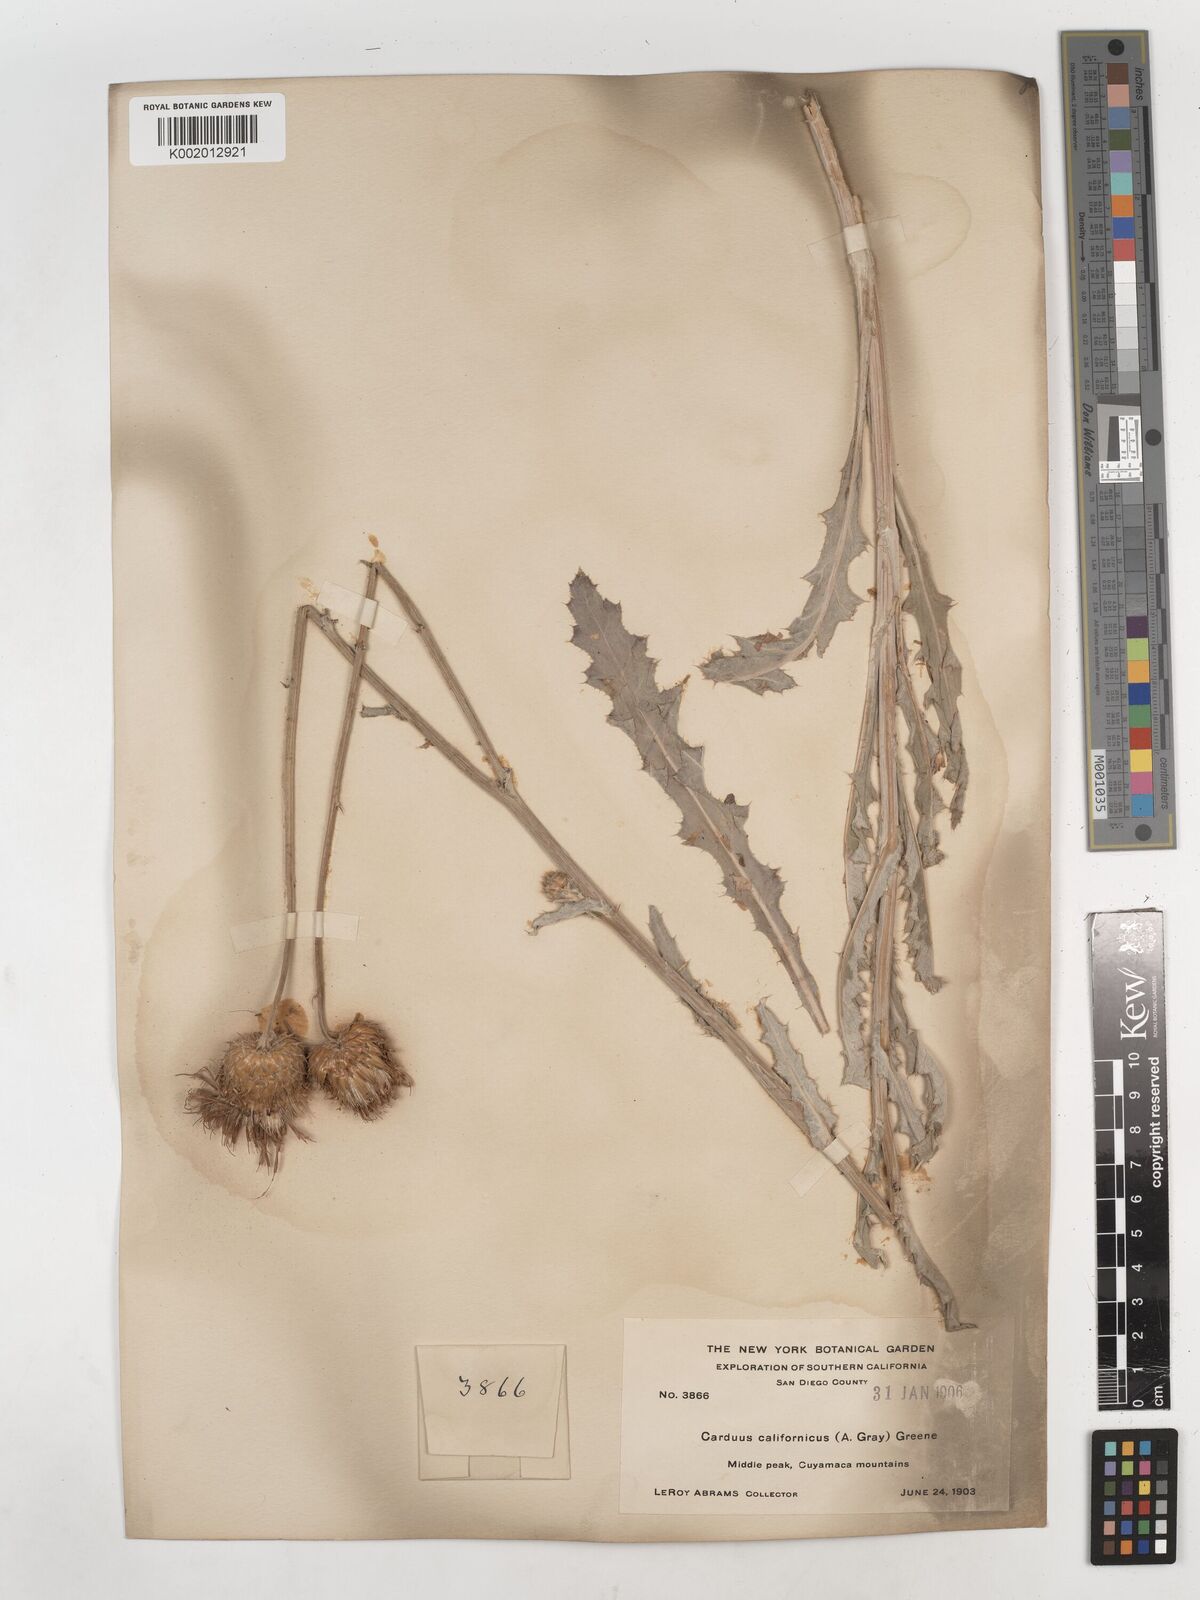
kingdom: Plantae
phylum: Tracheophyta
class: Magnoliopsida
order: Asterales
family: Asteraceae
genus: Cirsium
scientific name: Cirsium occidentale
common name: Western thistle
